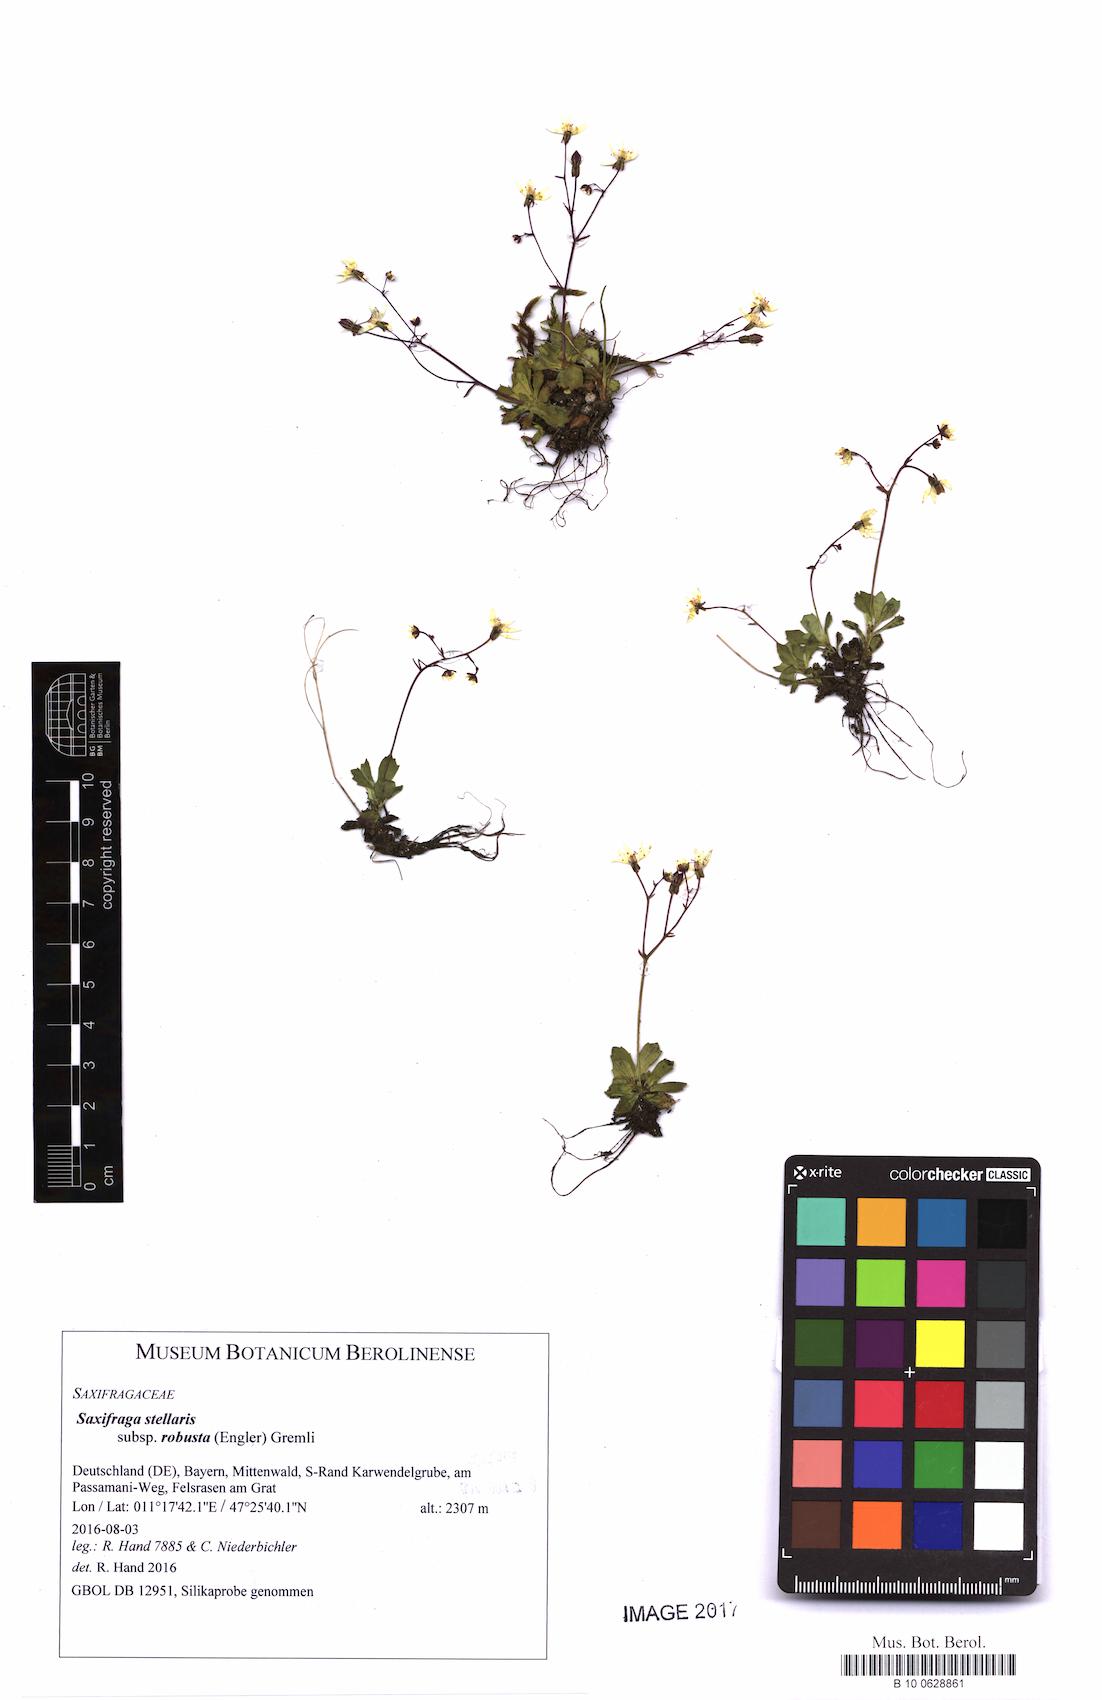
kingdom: Plantae
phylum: Tracheophyta
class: Magnoliopsida
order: Saxifragales
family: Saxifragaceae
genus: Micranthes
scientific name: Micranthes stellaris
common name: Starry saxifrage
